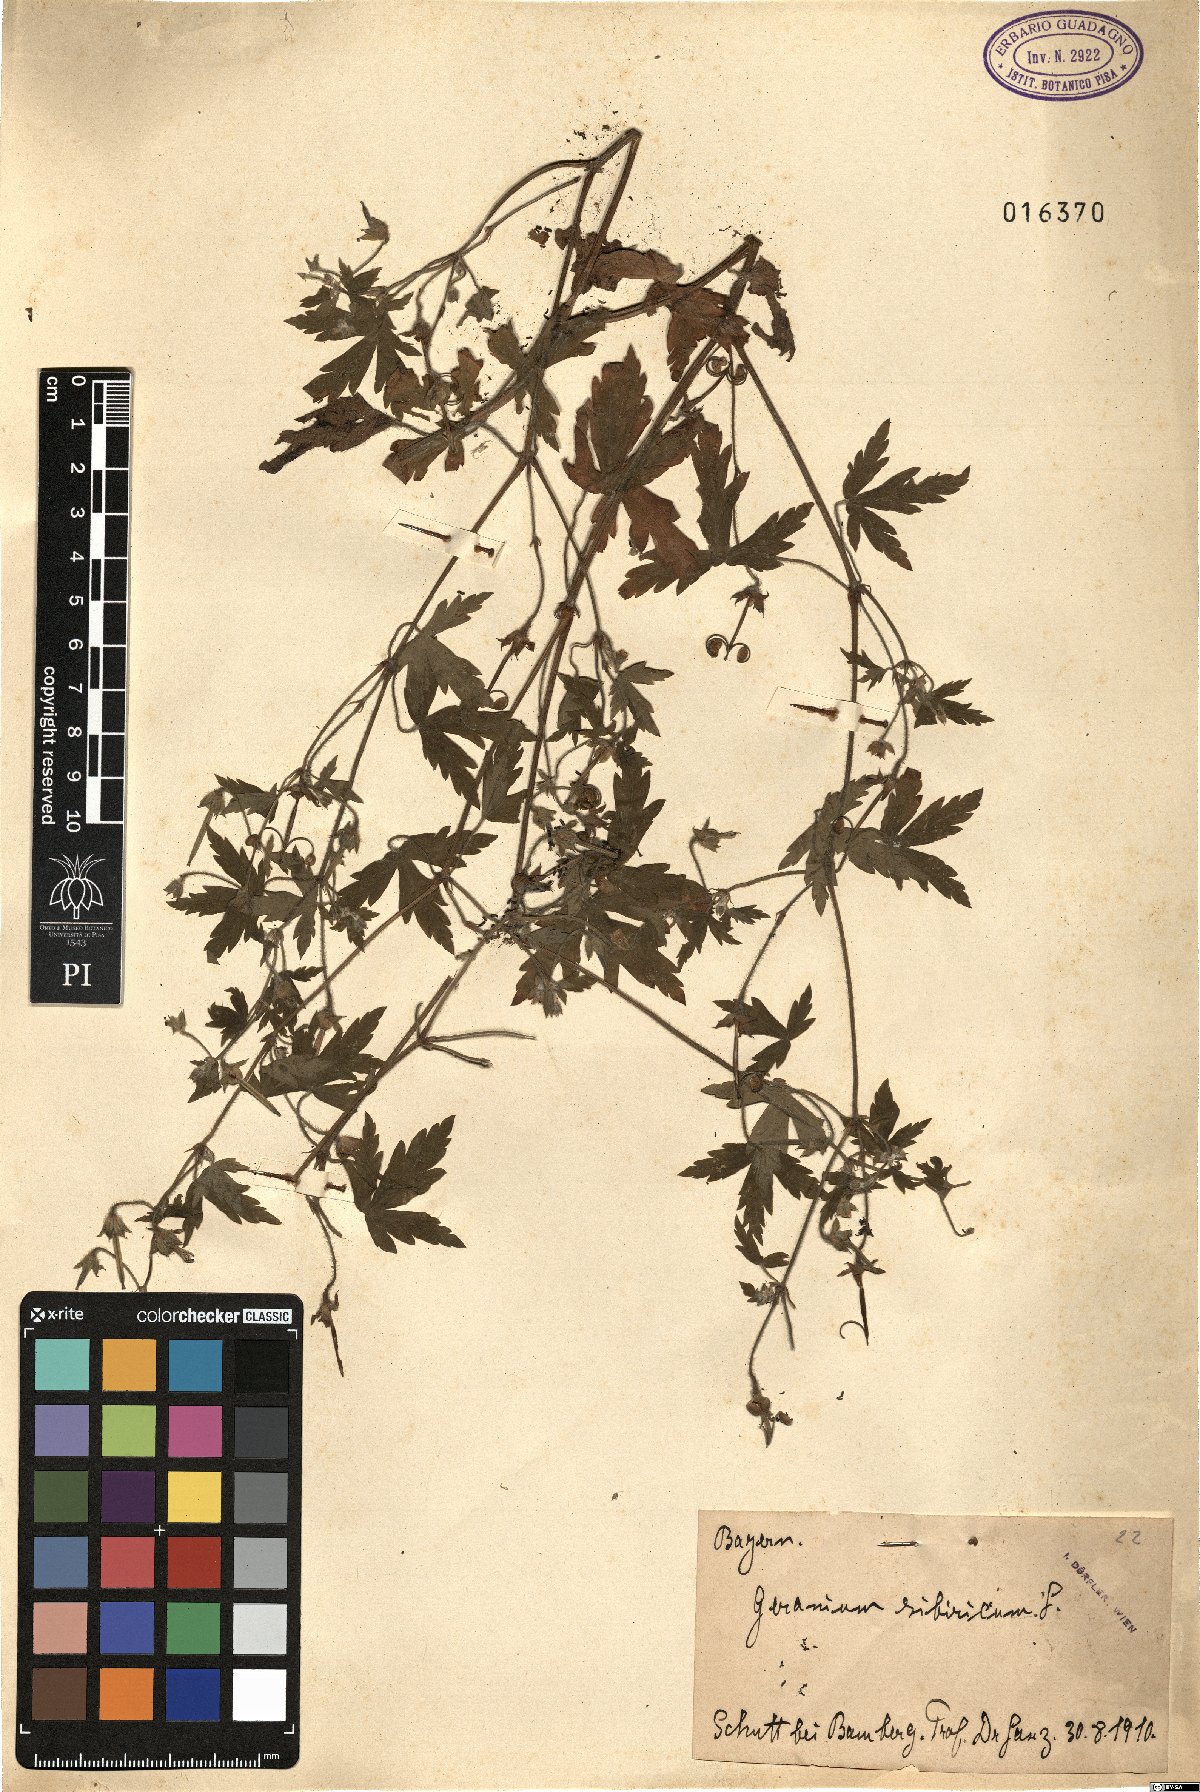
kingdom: Plantae
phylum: Tracheophyta
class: Magnoliopsida
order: Geraniales
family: Geraniaceae
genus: Geranium
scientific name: Geranium sibiricum
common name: Siberian crane's-bill
